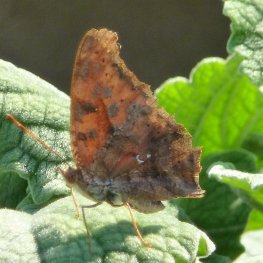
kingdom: Animalia
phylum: Arthropoda
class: Insecta
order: Lepidoptera
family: Nymphalidae
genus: Polygonia
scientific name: Polygonia interrogationis
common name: Question Mark
